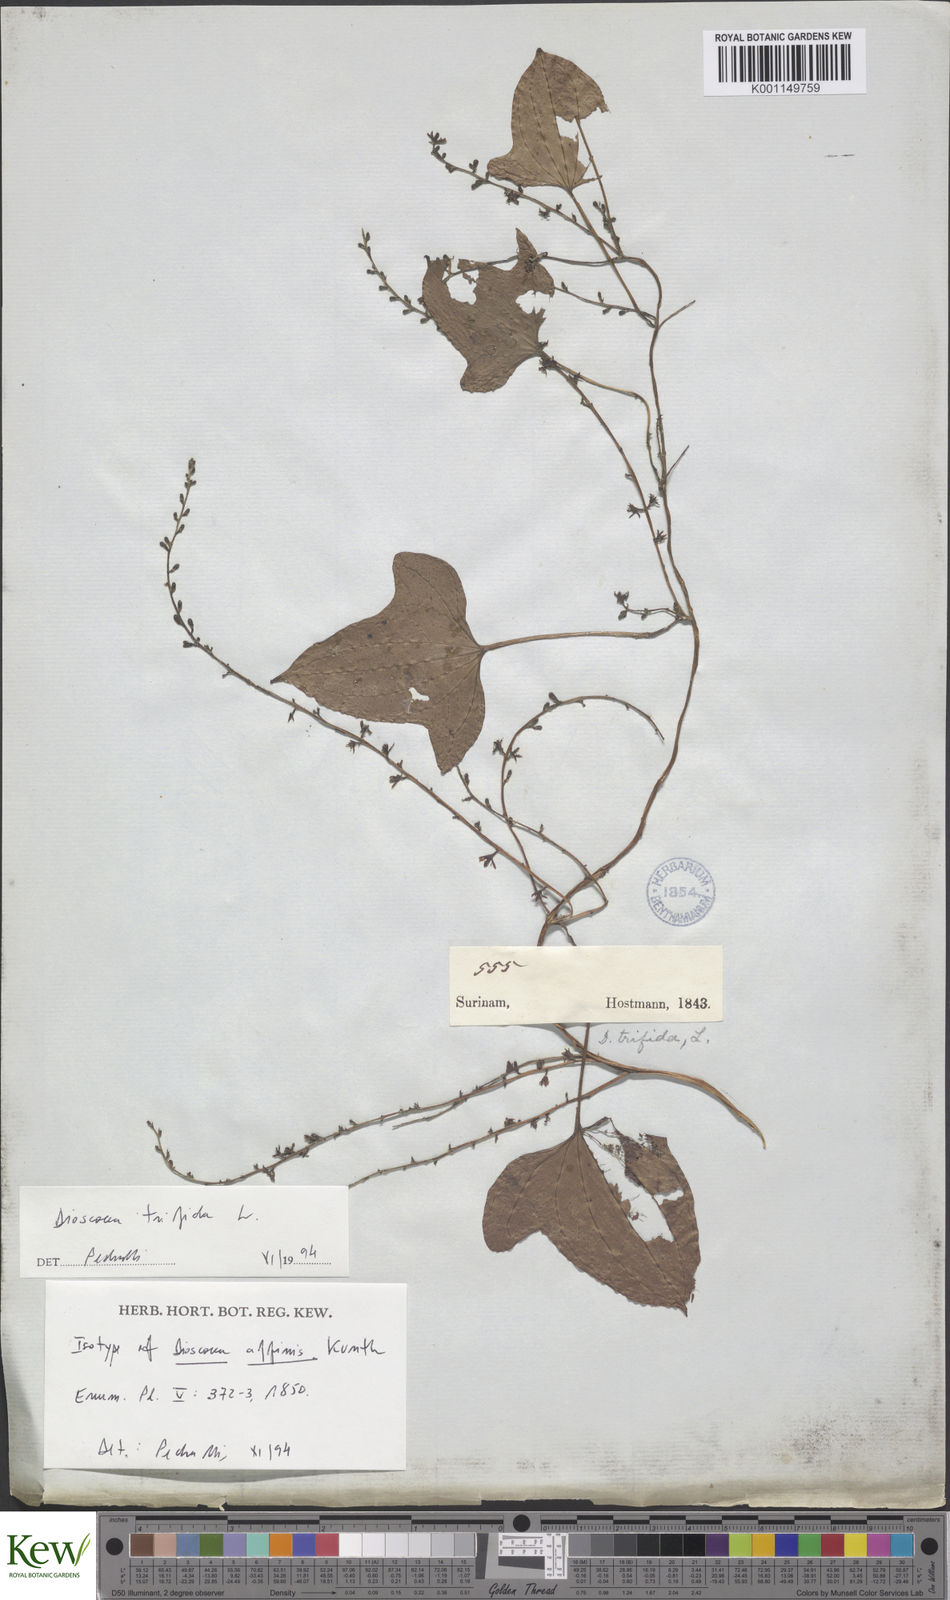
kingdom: Plantae
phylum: Tracheophyta
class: Liliopsida
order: Dioscoreales
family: Dioscoreaceae
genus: Dioscorea
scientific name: Dioscorea trifida
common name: Cush-cush
